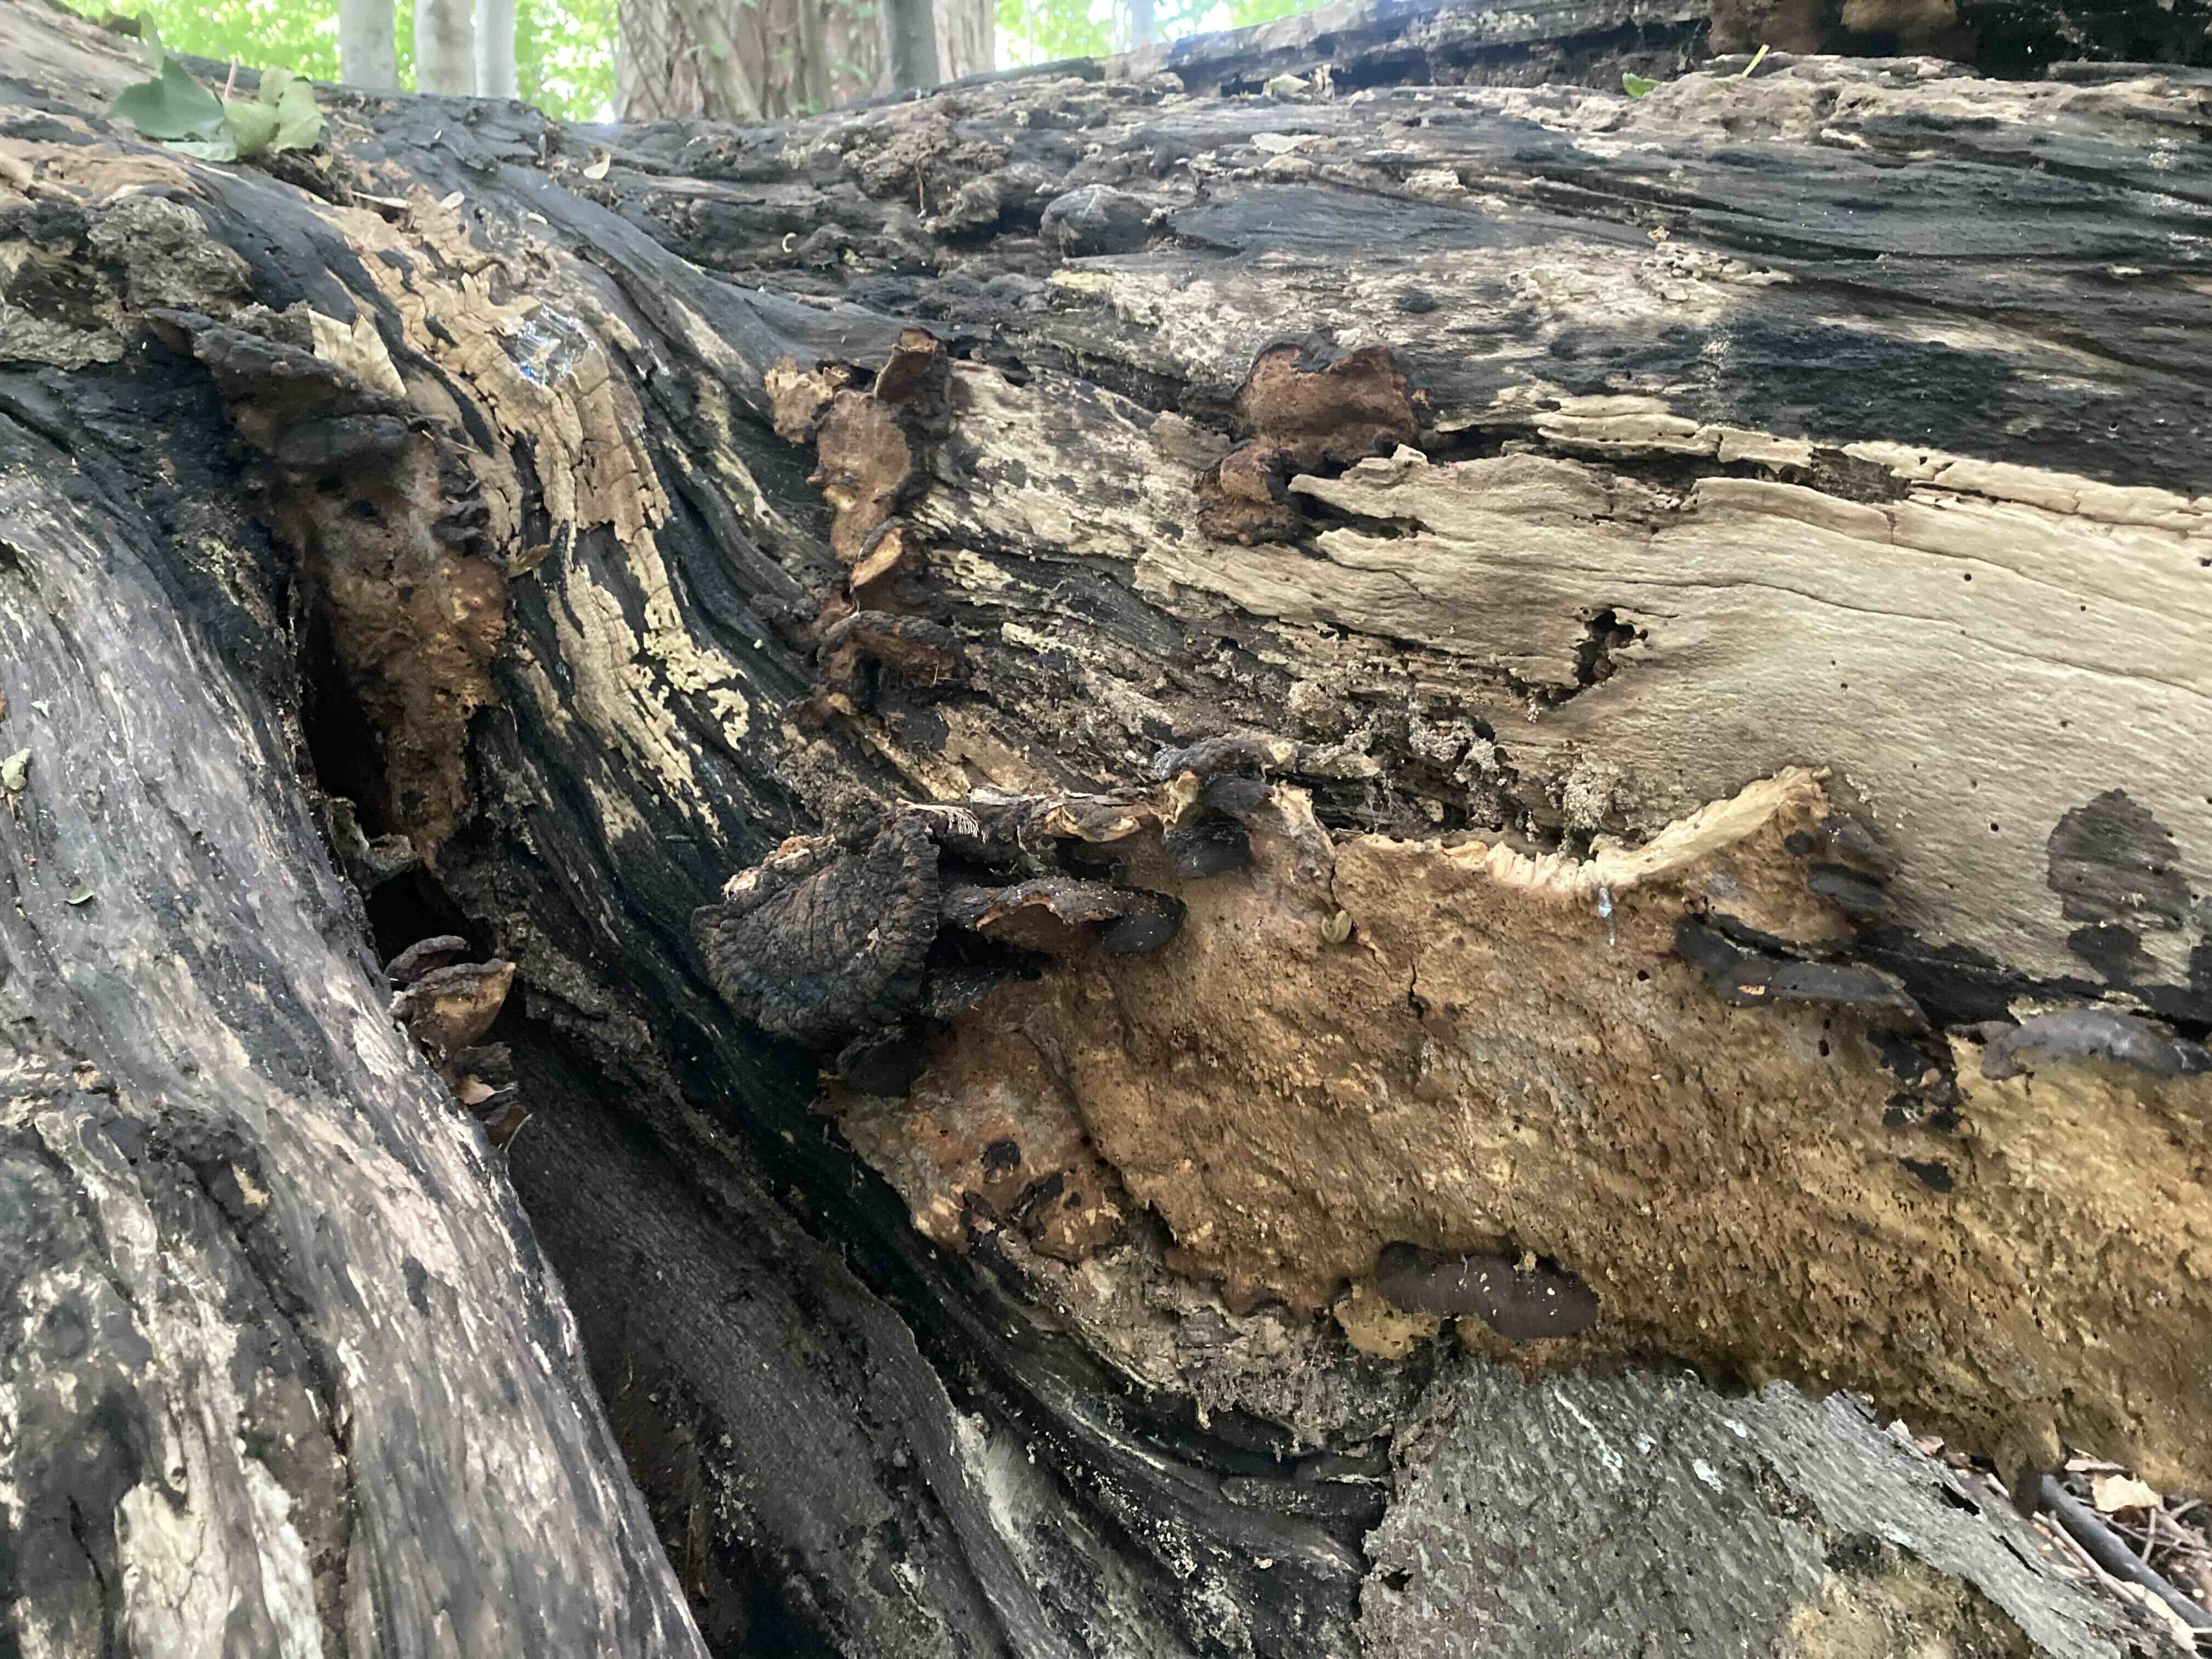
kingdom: Fungi
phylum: Basidiomycota
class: Agaricomycetes
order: Polyporales
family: Ischnodermataceae
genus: Ischnoderma
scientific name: Ischnoderma resinosum
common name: løv-tjæreporesvamp
